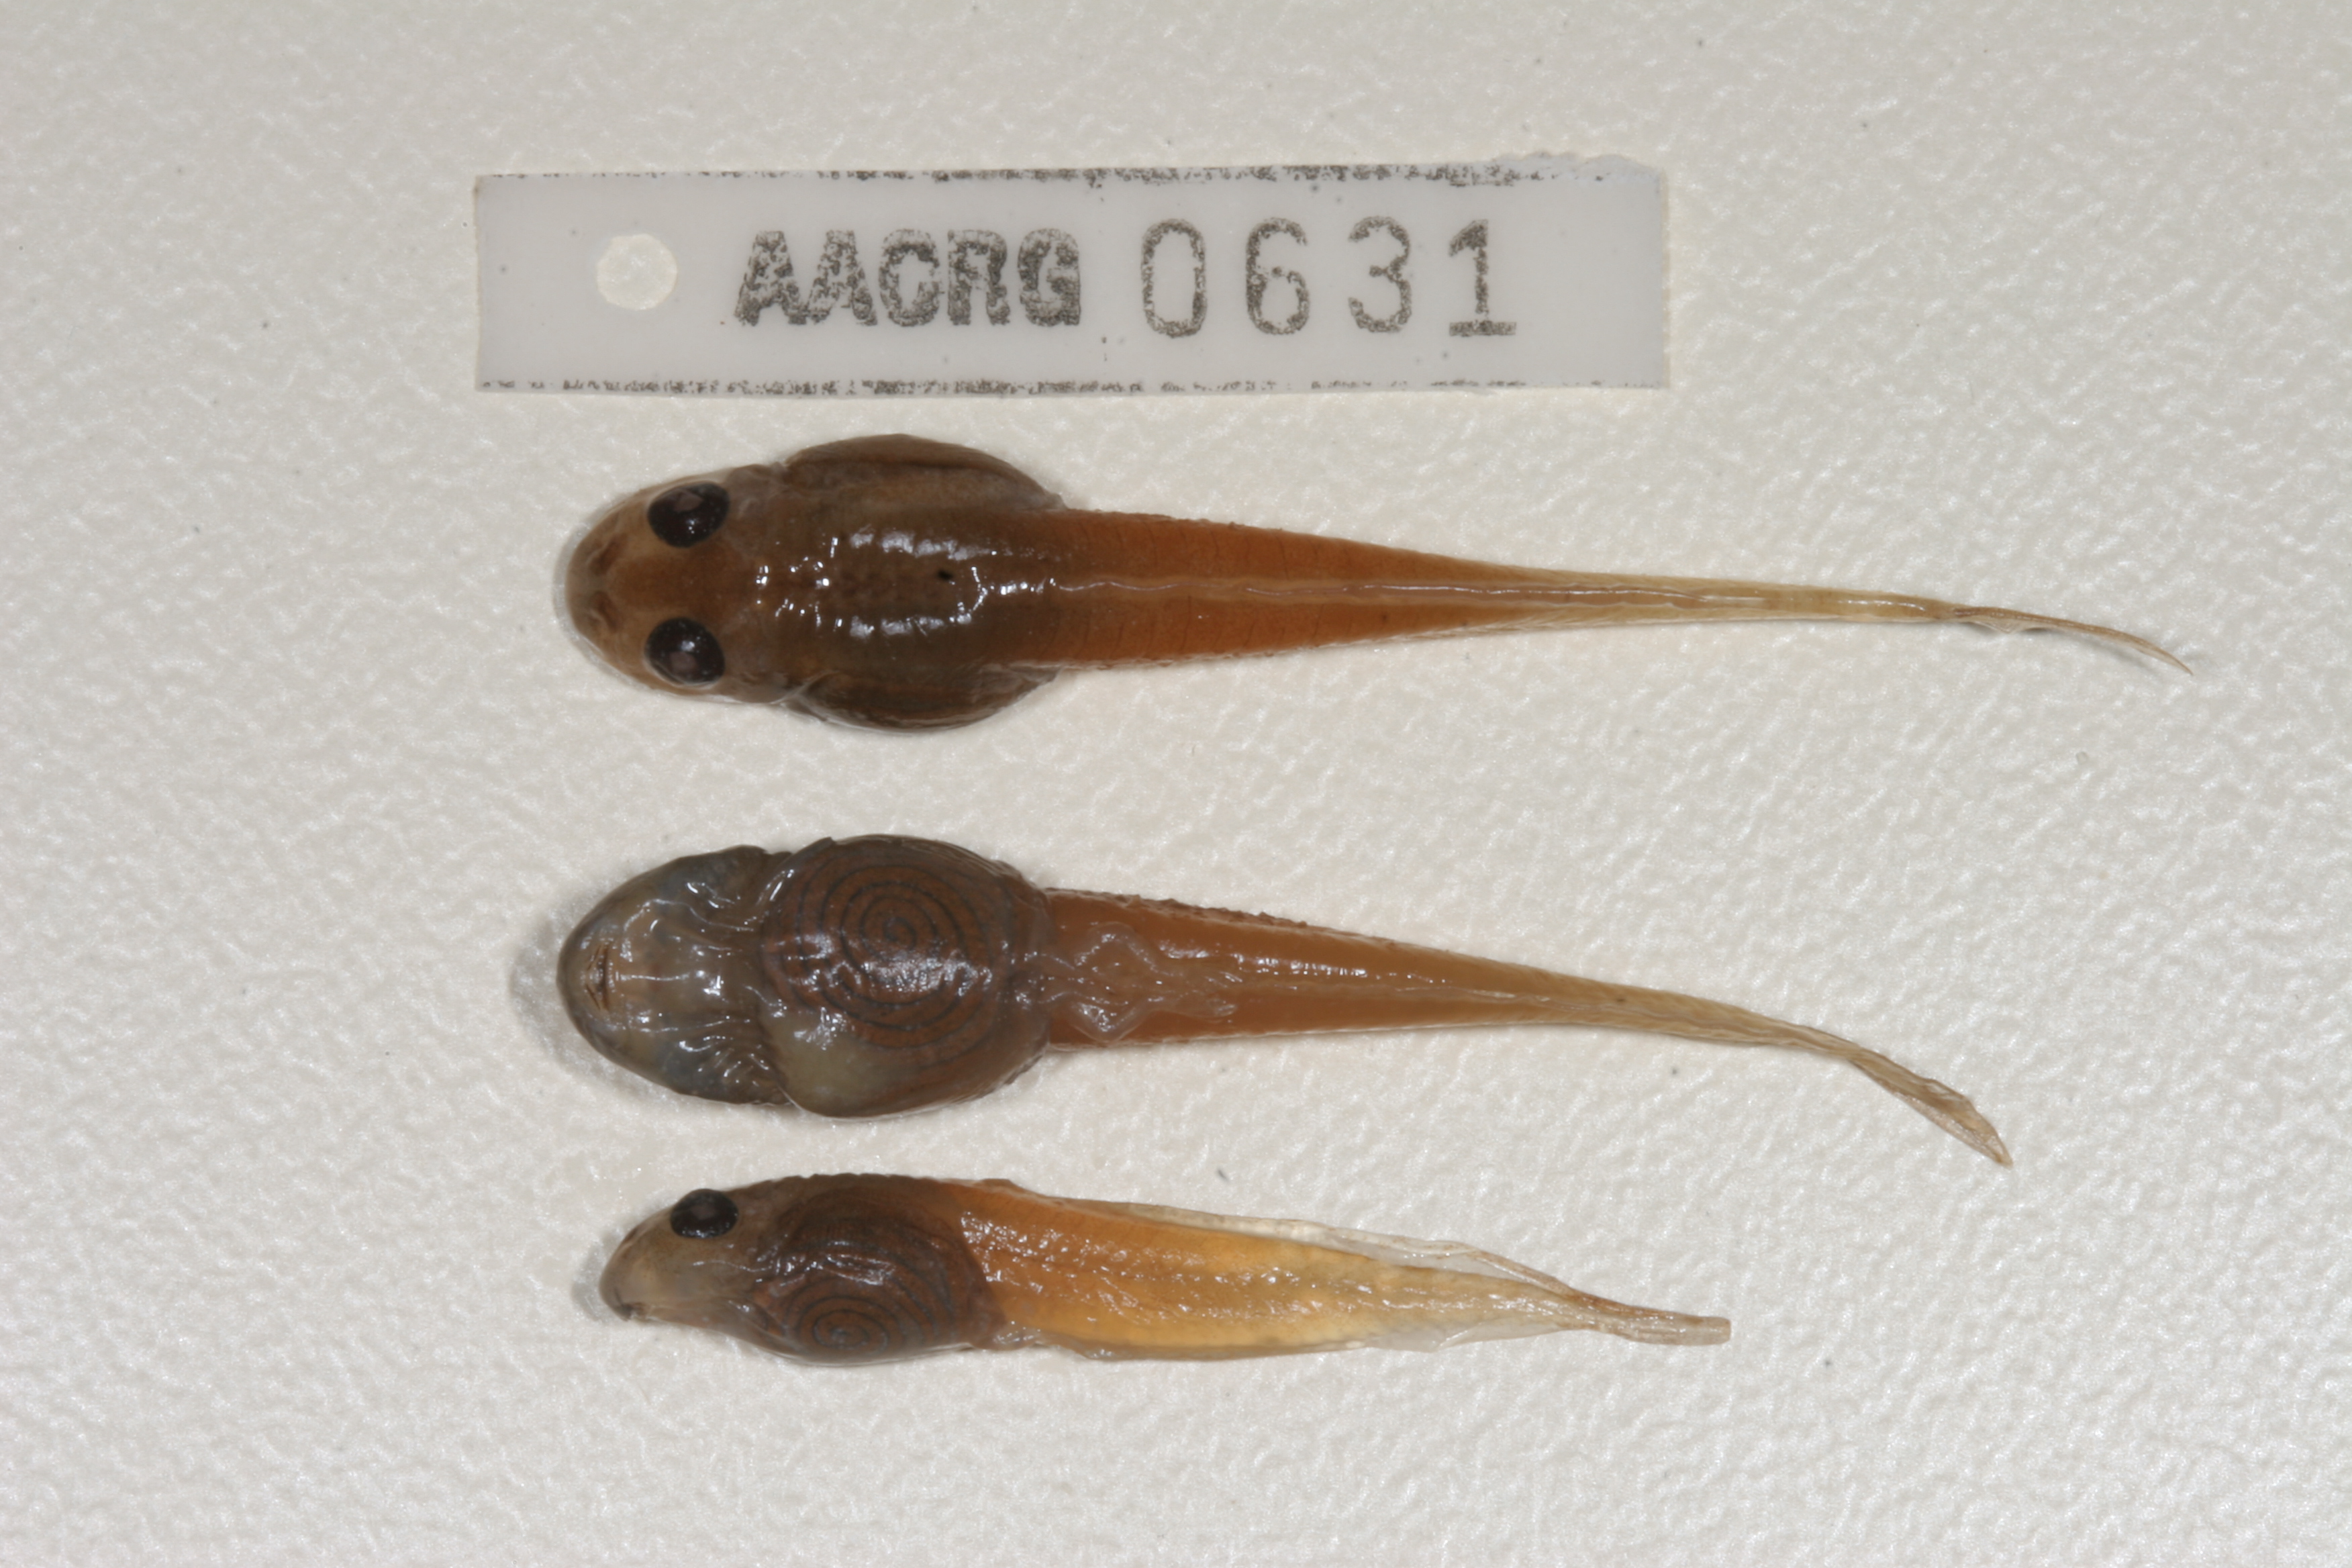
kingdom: Animalia
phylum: Chordata
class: Amphibia
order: Anura
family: Pyxicephalidae
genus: Amietia
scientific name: Amietia angolensis
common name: Dusky-throated frog
